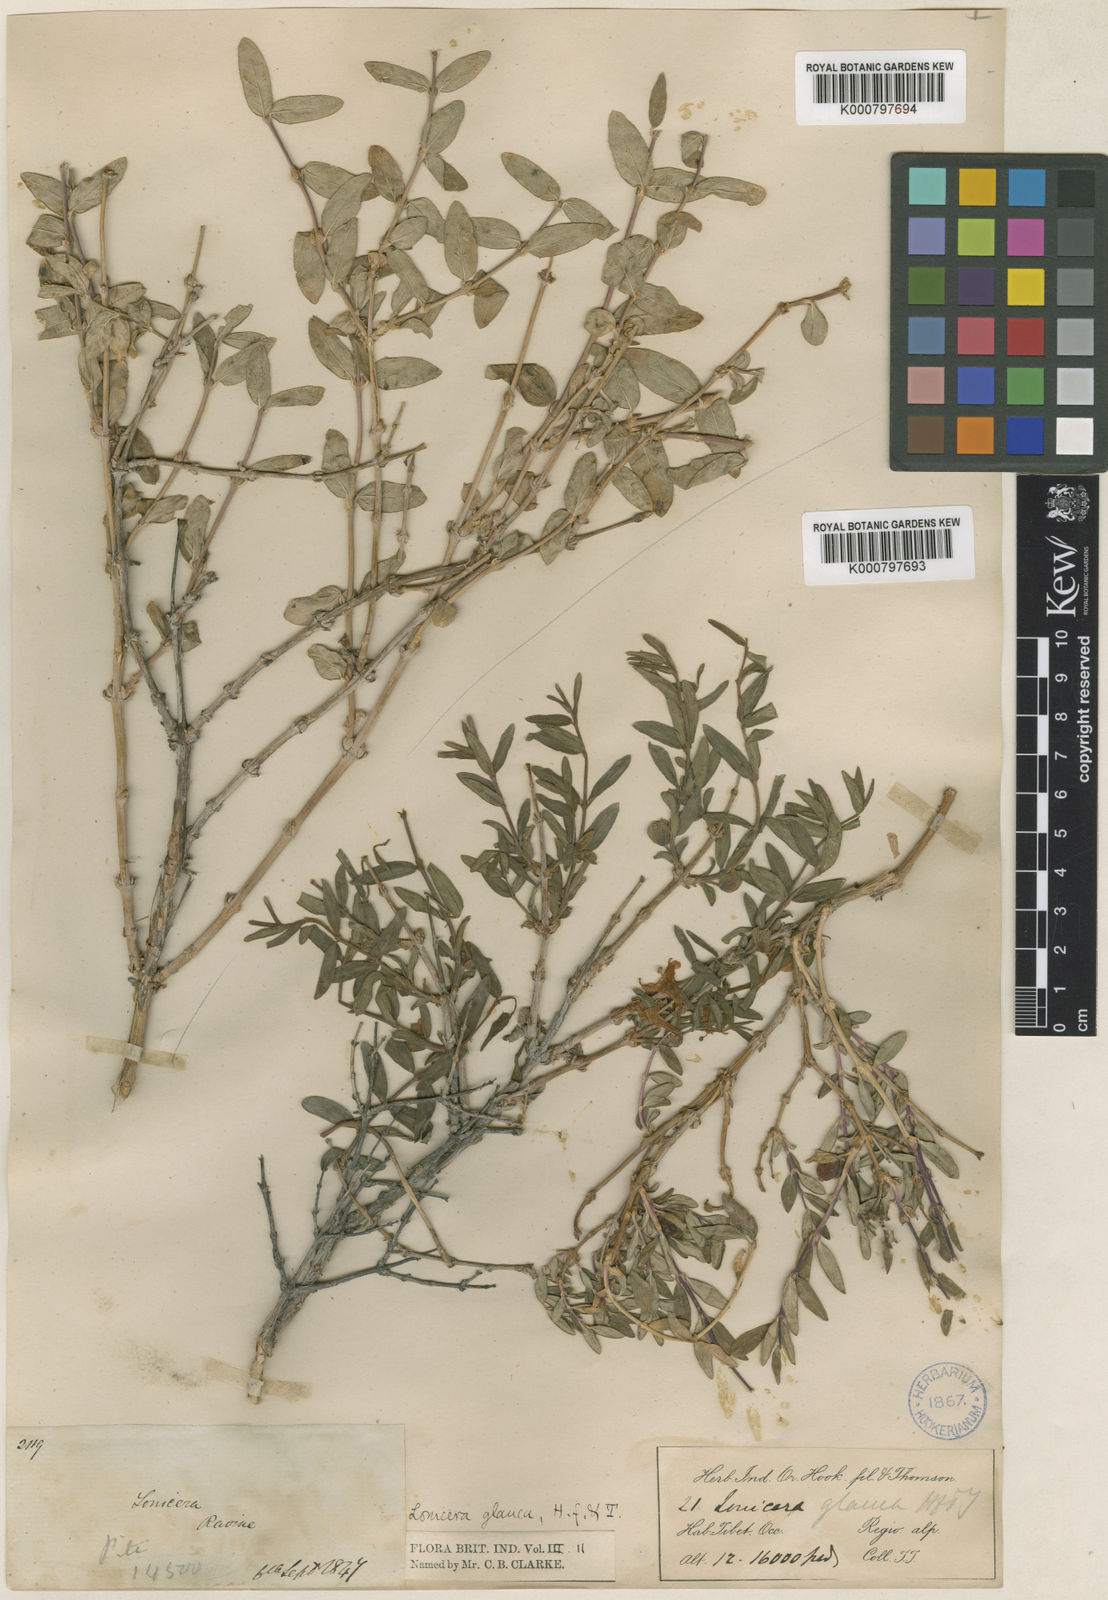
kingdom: Plantae
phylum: Tracheophyta
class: Magnoliopsida
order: Dipsacales
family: Caprifoliaceae
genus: Lonicera
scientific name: Lonicera semenovii
